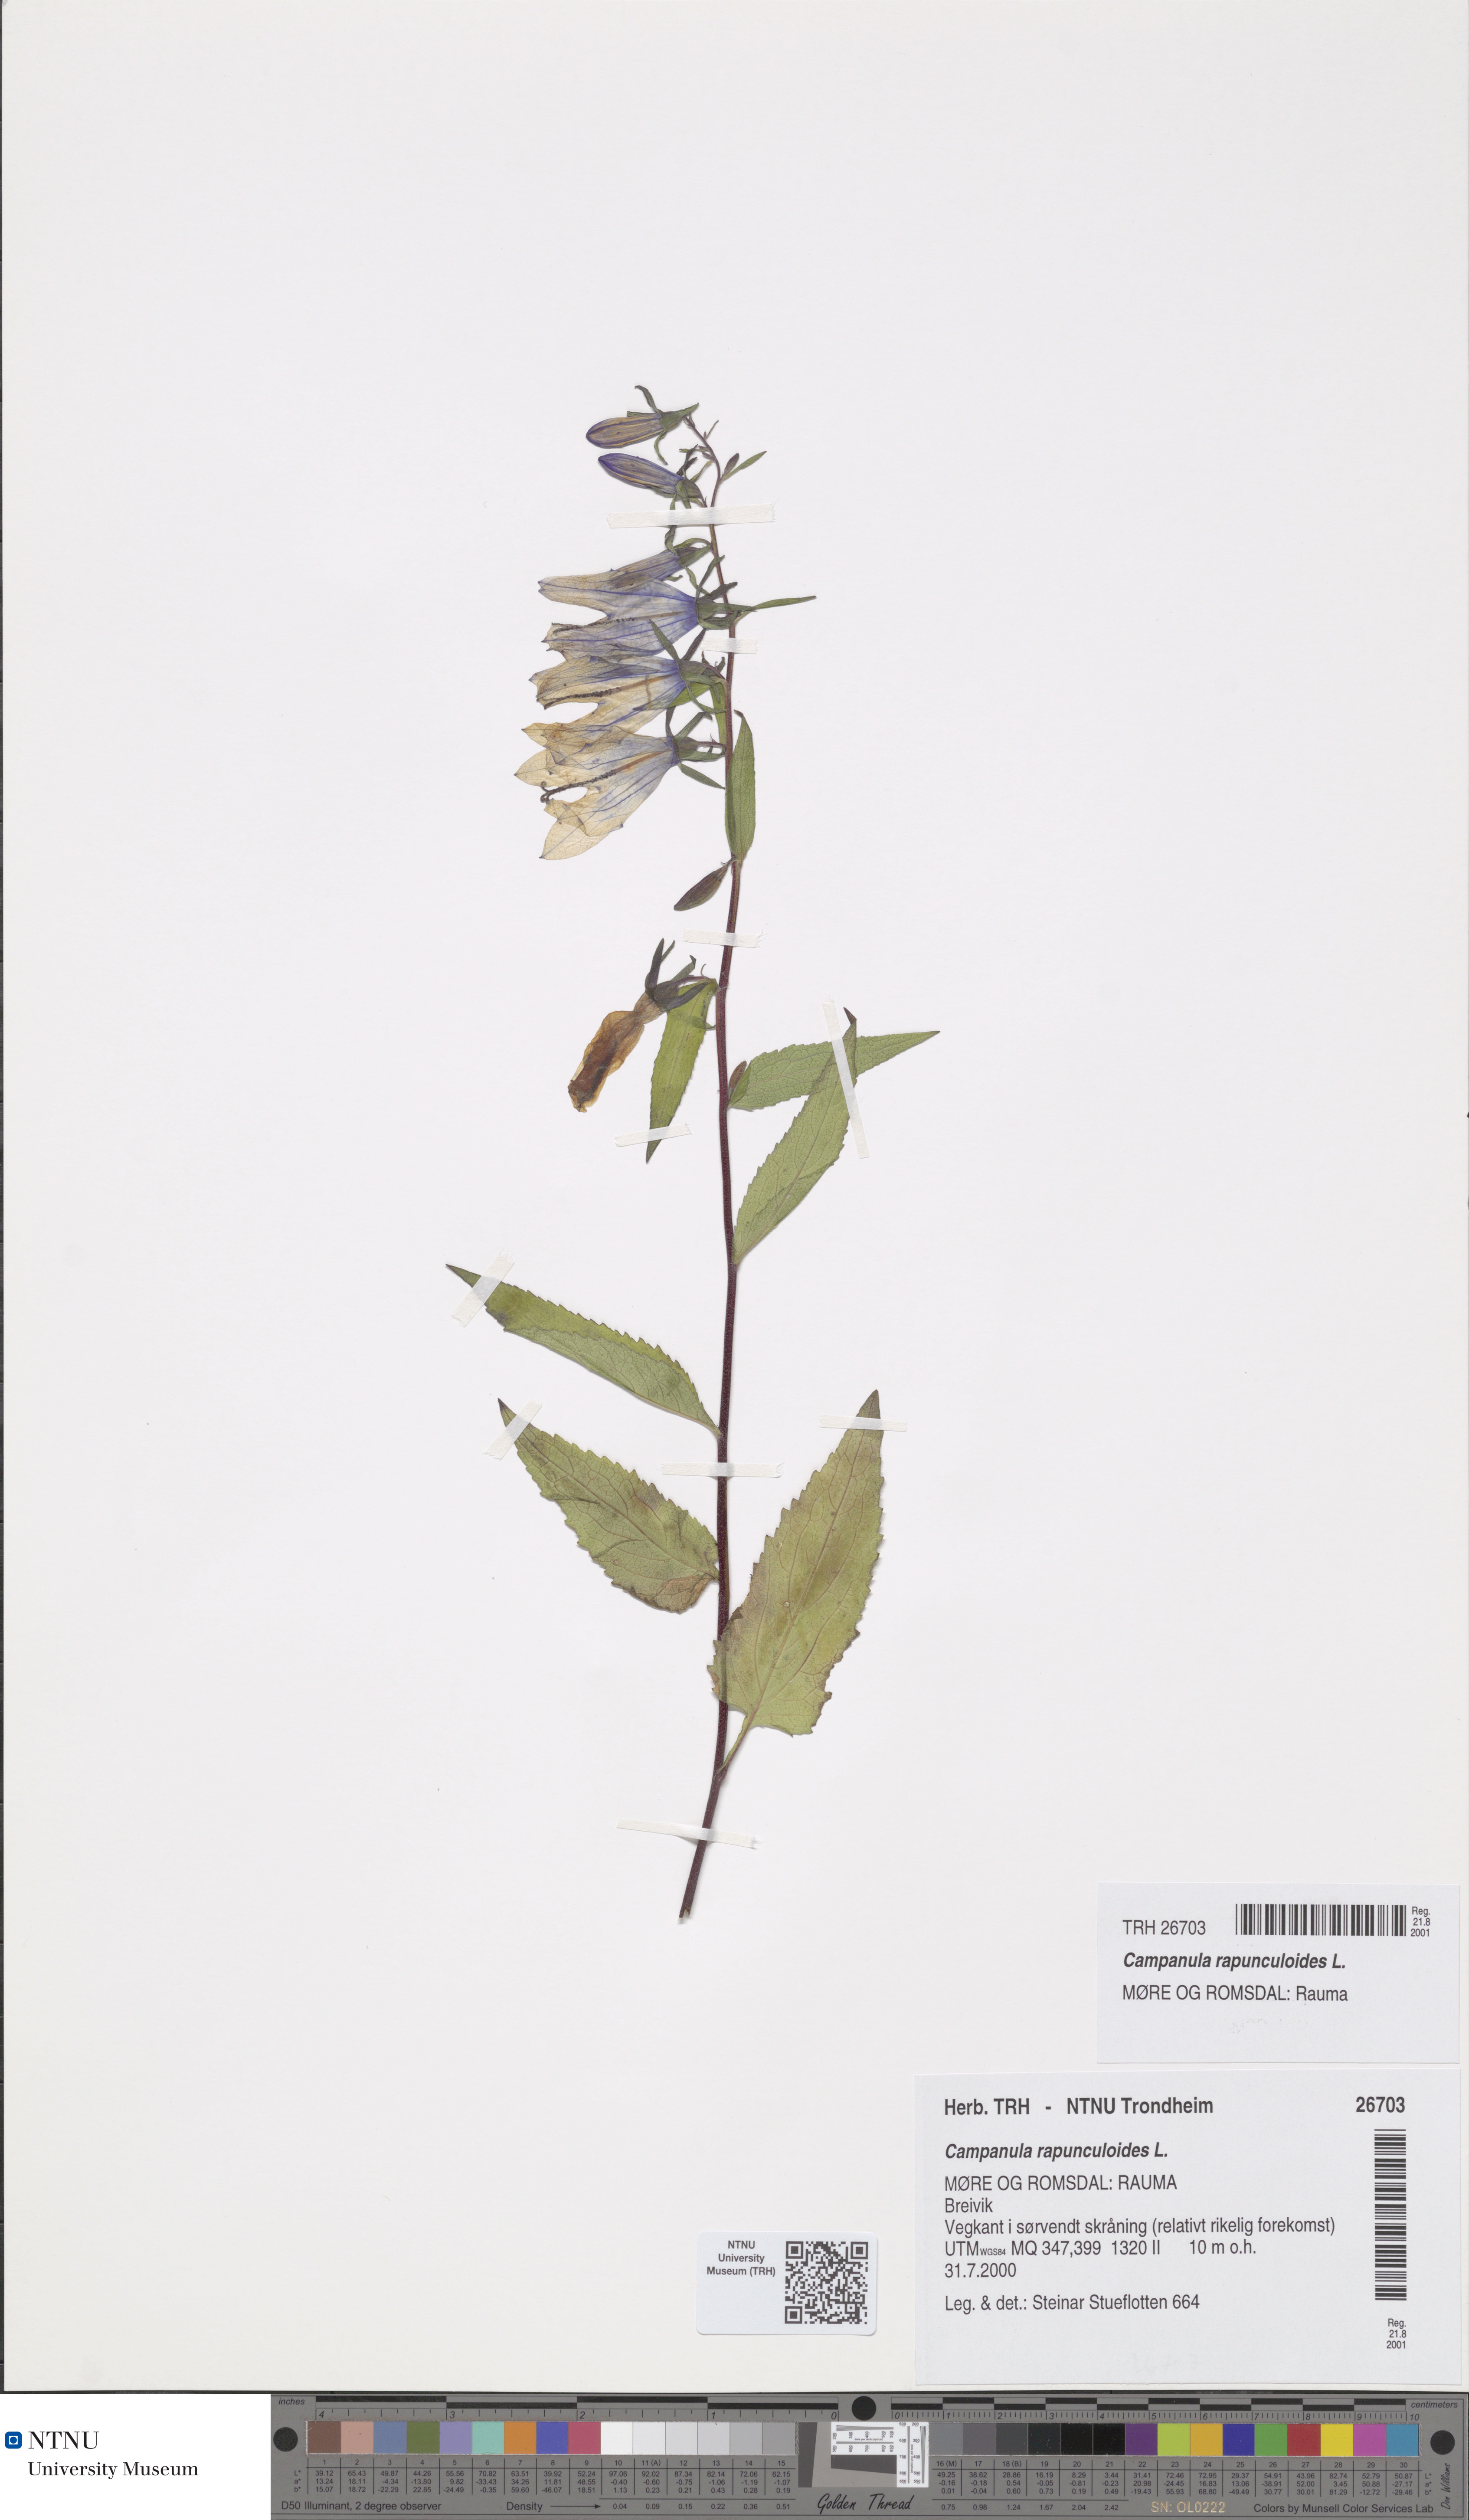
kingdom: Plantae
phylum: Tracheophyta
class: Magnoliopsida
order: Asterales
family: Campanulaceae
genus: Campanula
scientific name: Campanula rapunculoides
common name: Creeping bellflower
